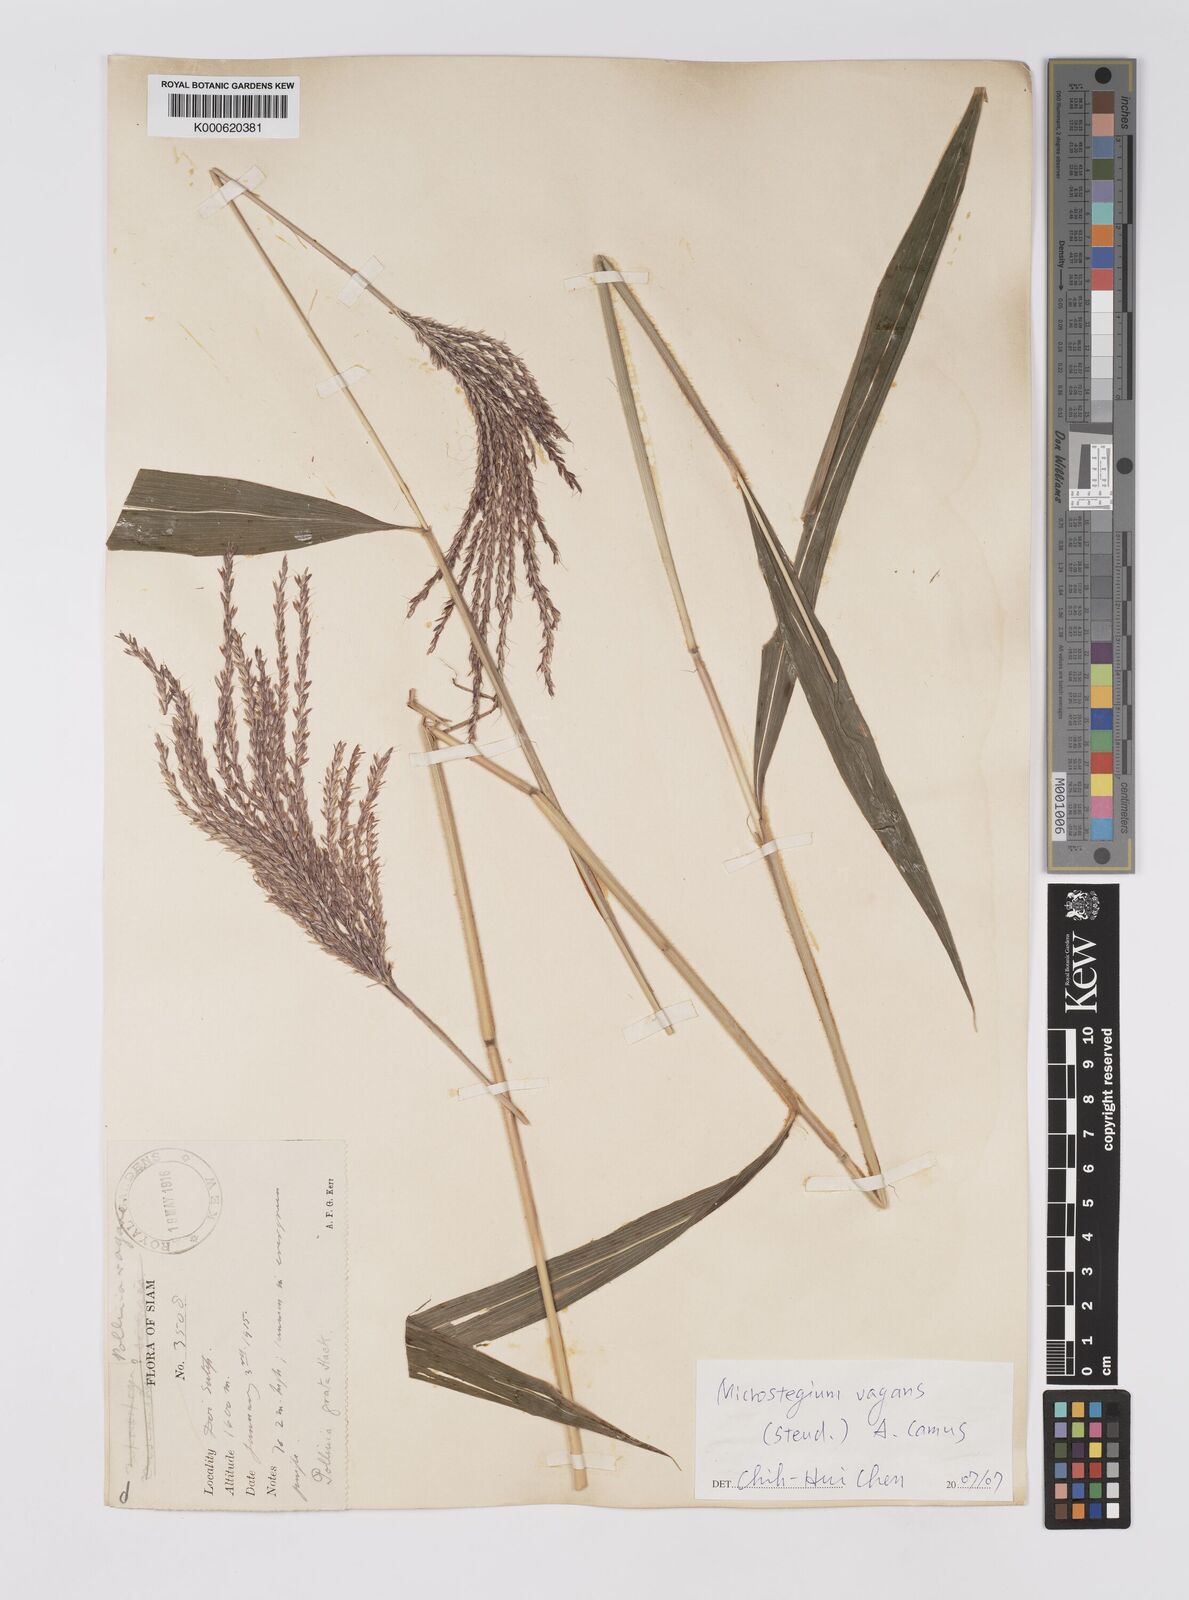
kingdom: Plantae
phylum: Tracheophyta
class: Liliopsida
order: Poales
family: Poaceae
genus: Microstegium
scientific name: Microstegium fasciculatum
